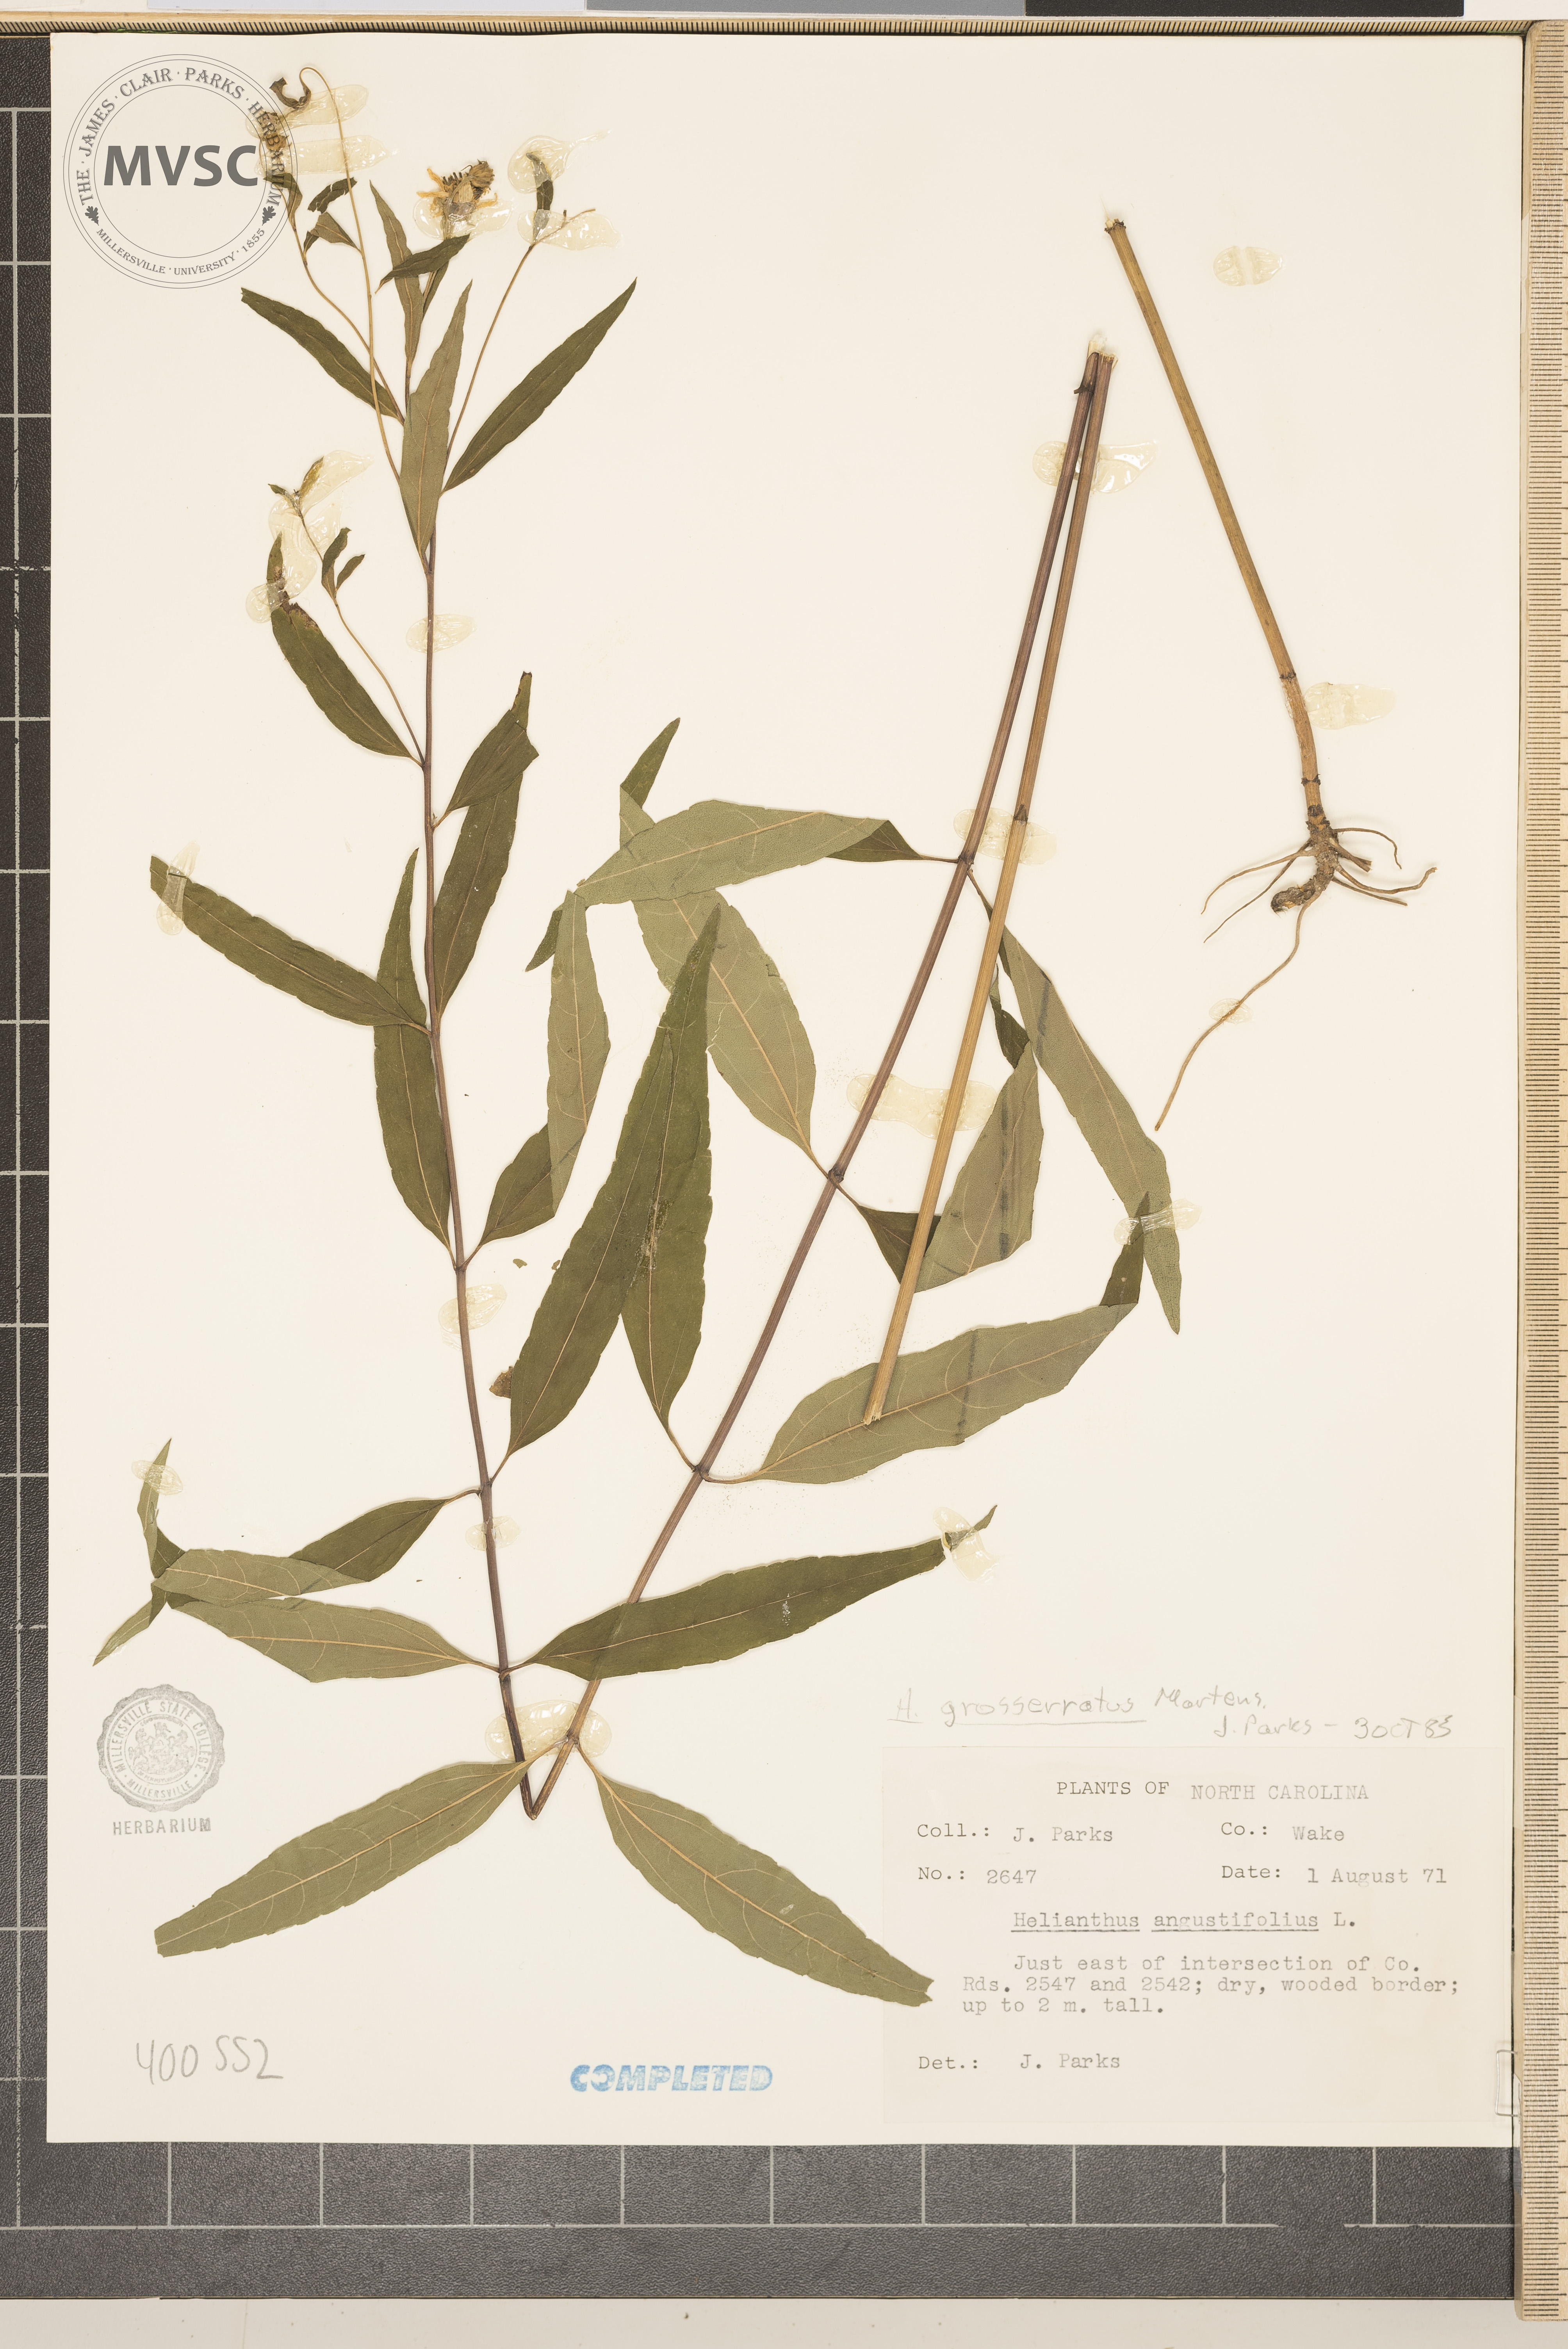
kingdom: Plantae
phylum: Tracheophyta
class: Magnoliopsida
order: Asterales
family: Asteraceae
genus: Helianthus
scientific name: Helianthus grosseserratus
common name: Sawtooth sunflower
